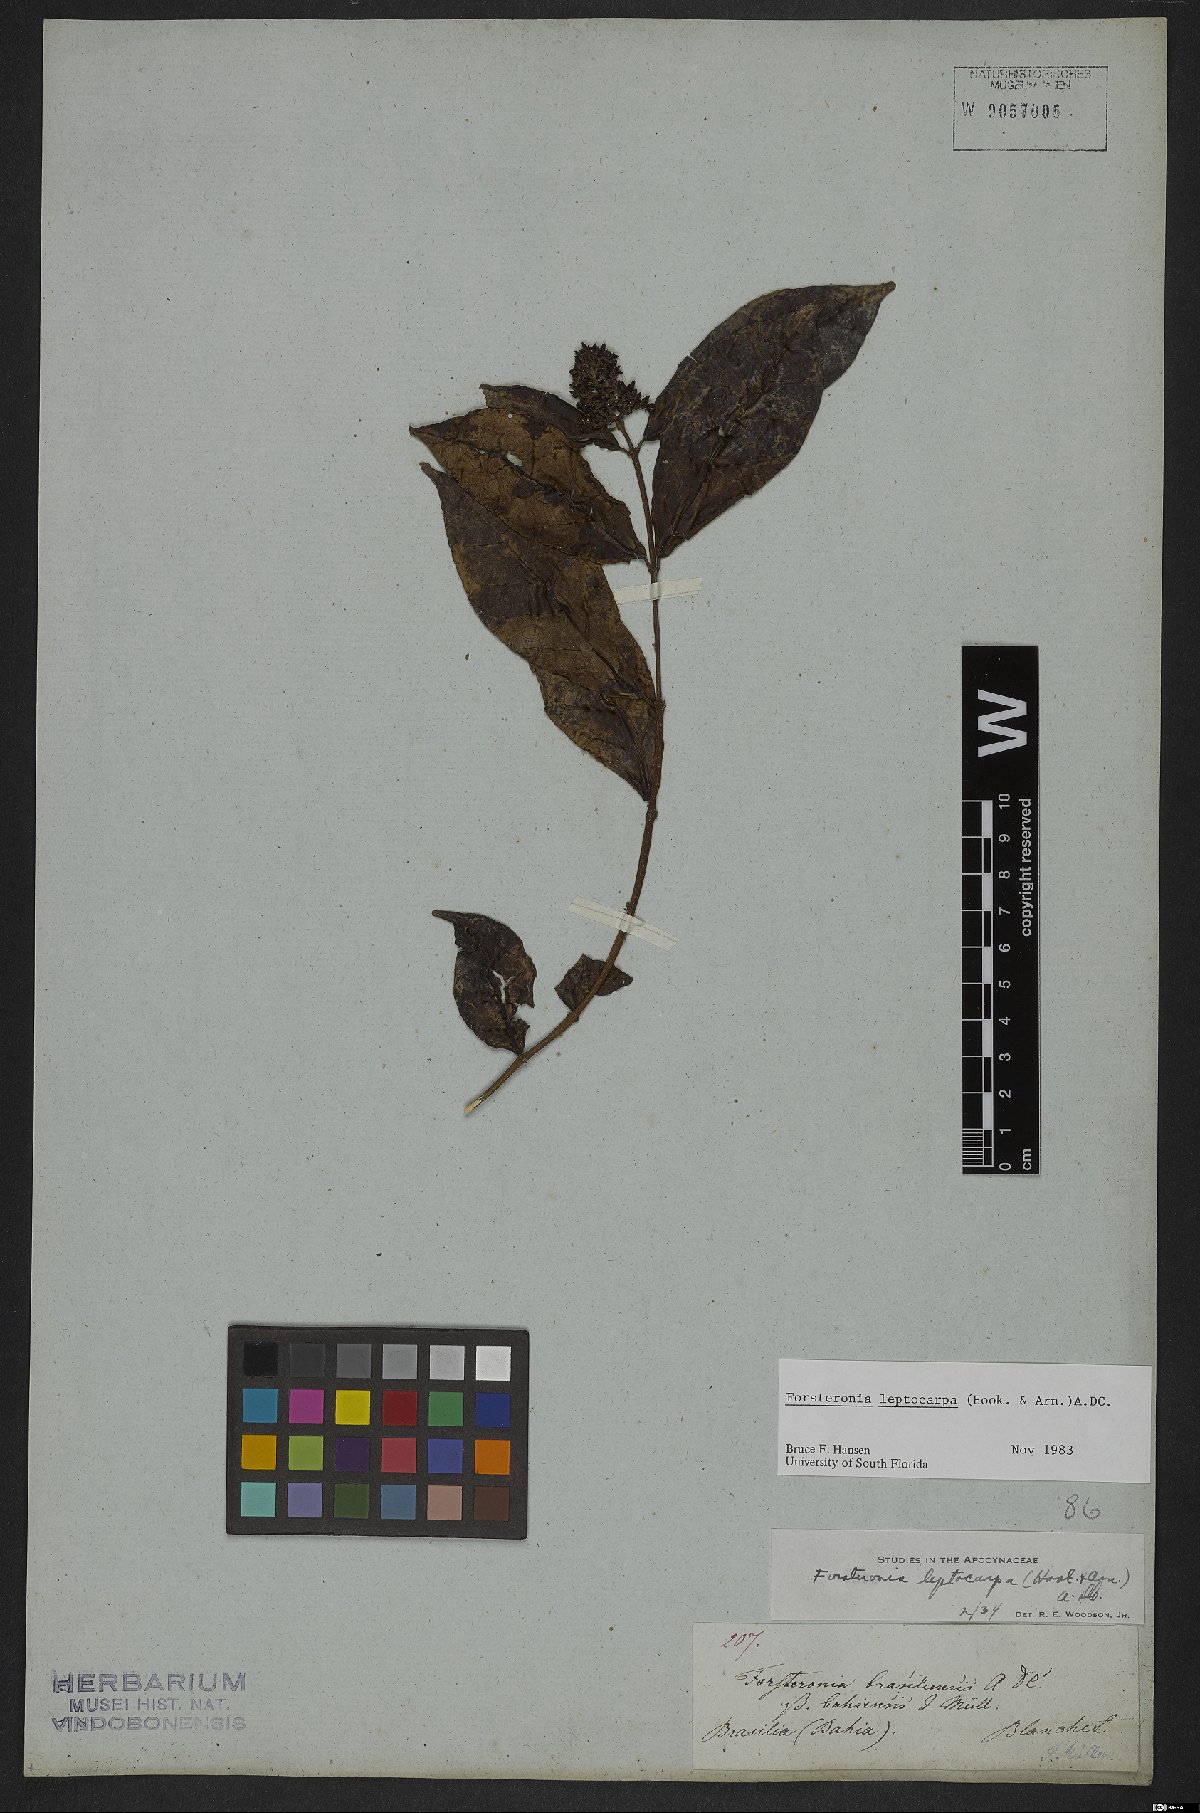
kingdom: Plantae
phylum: Tracheophyta
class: Magnoliopsida
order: Gentianales
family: Apocynaceae
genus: Forsteronia
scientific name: Forsteronia leptocarpa
